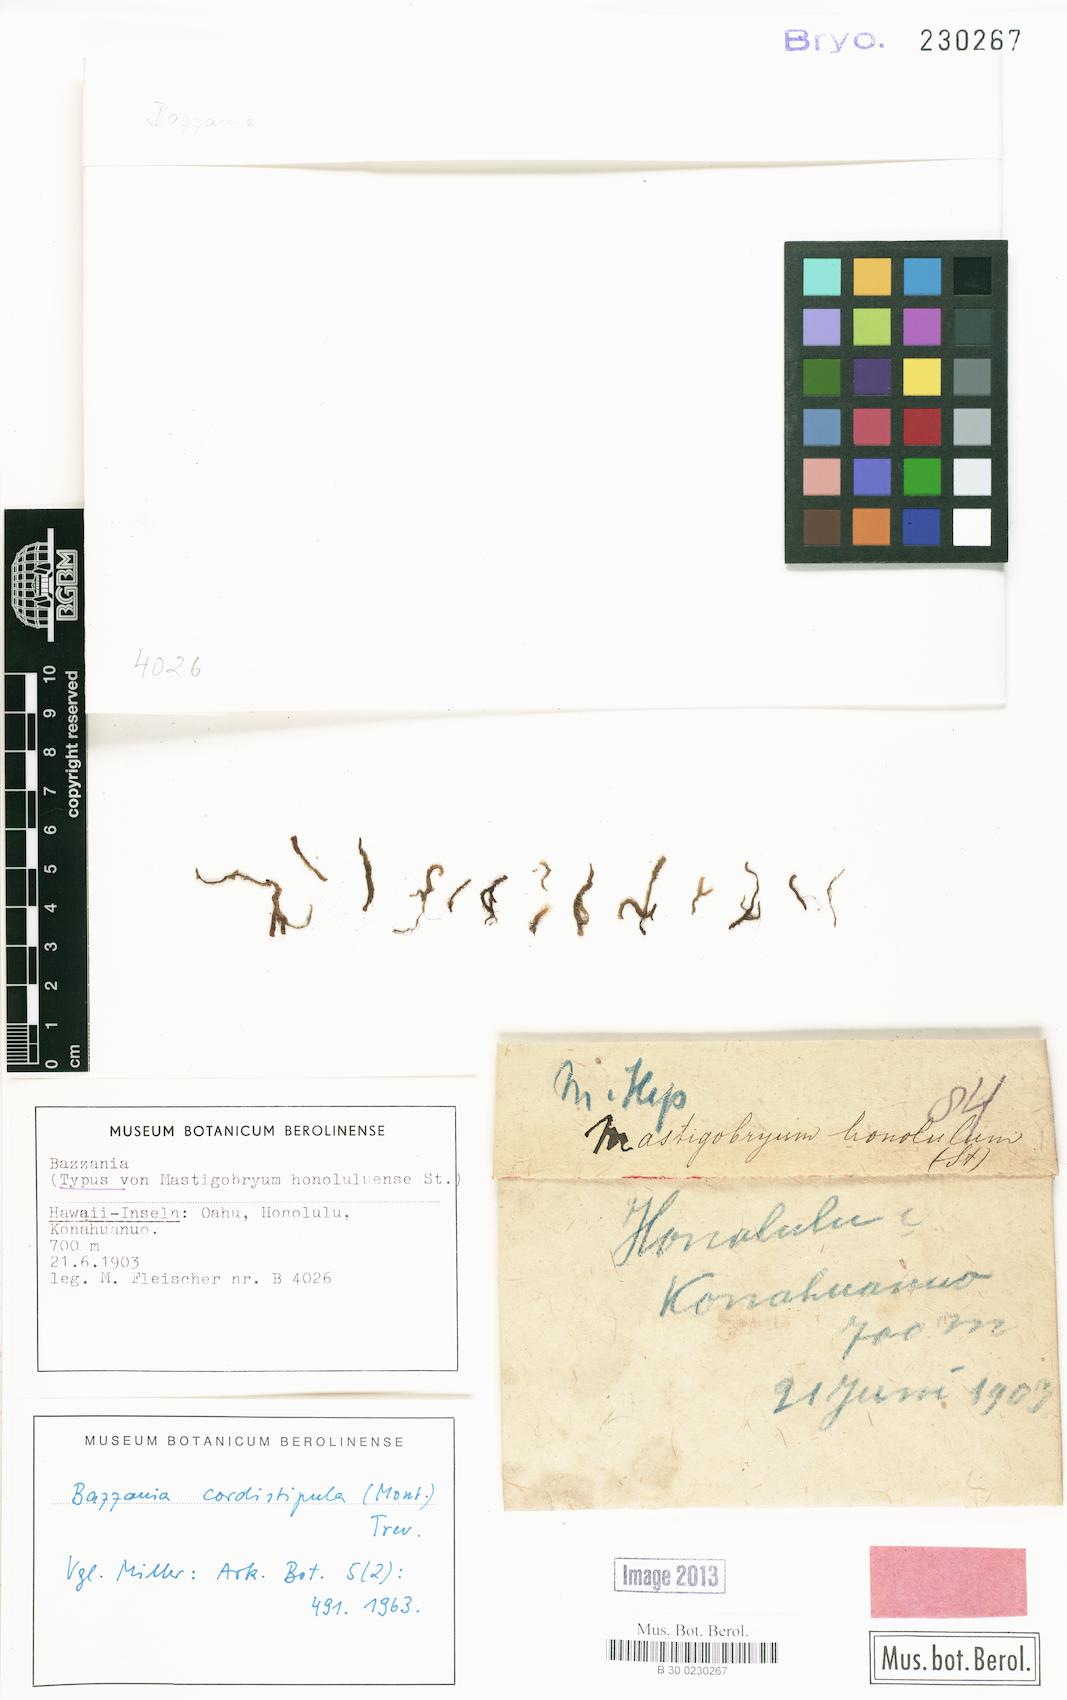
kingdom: Plantae
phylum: Marchantiophyta
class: Jungermanniopsida
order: Jungermanniales
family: Lepidoziaceae
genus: Bazzania
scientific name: Bazzania praerupta
